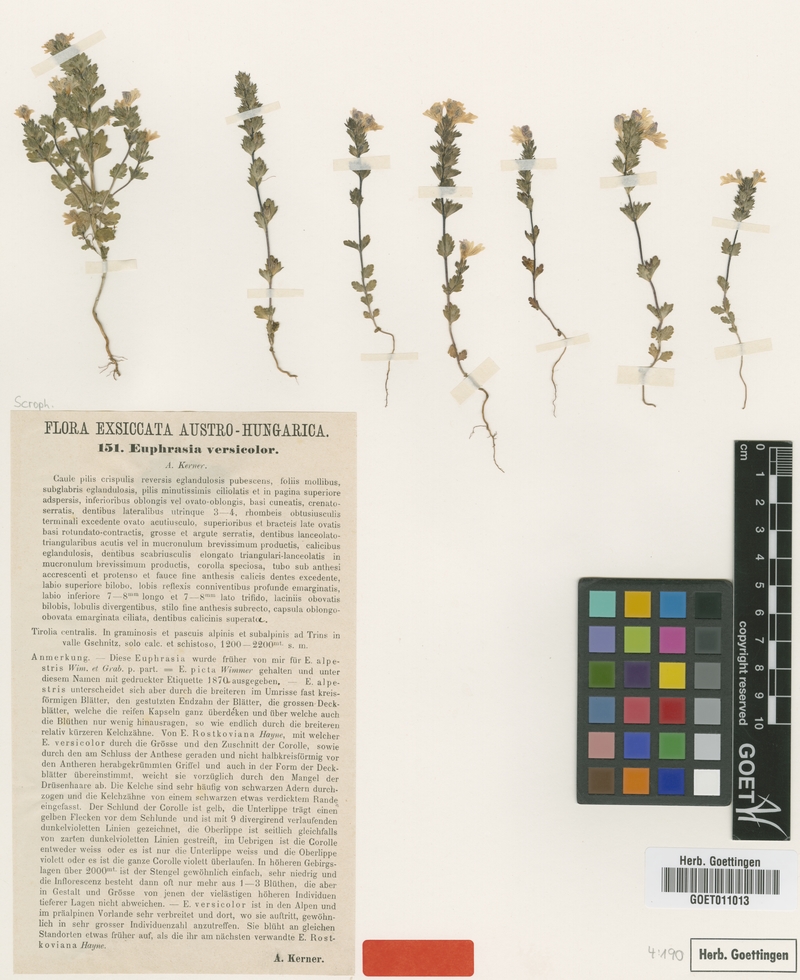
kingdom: Plantae
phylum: Tracheophyta
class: Magnoliopsida
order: Lamiales
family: Orobanchaceae
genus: Euphrasia
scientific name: Euphrasia picta
